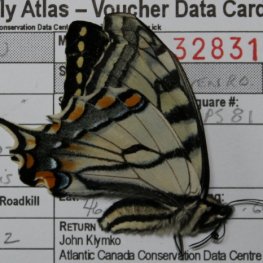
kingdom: Animalia
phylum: Arthropoda
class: Insecta
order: Lepidoptera
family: Papilionidae
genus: Pterourus
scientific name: Pterourus canadensis
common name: Canadian Tiger Swallowtail
